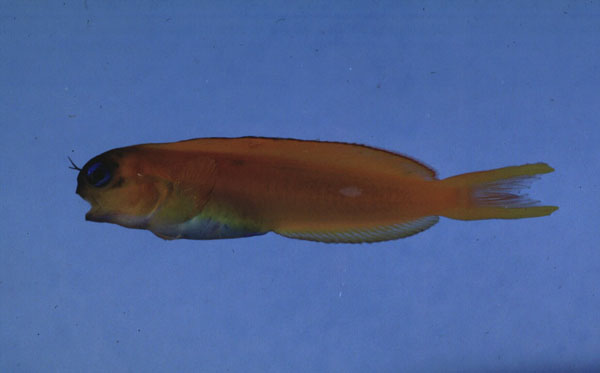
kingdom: Animalia
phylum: Chordata
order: Perciformes
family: Blenniidae
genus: Ecsenius
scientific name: Ecsenius midas
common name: Golden blenny
